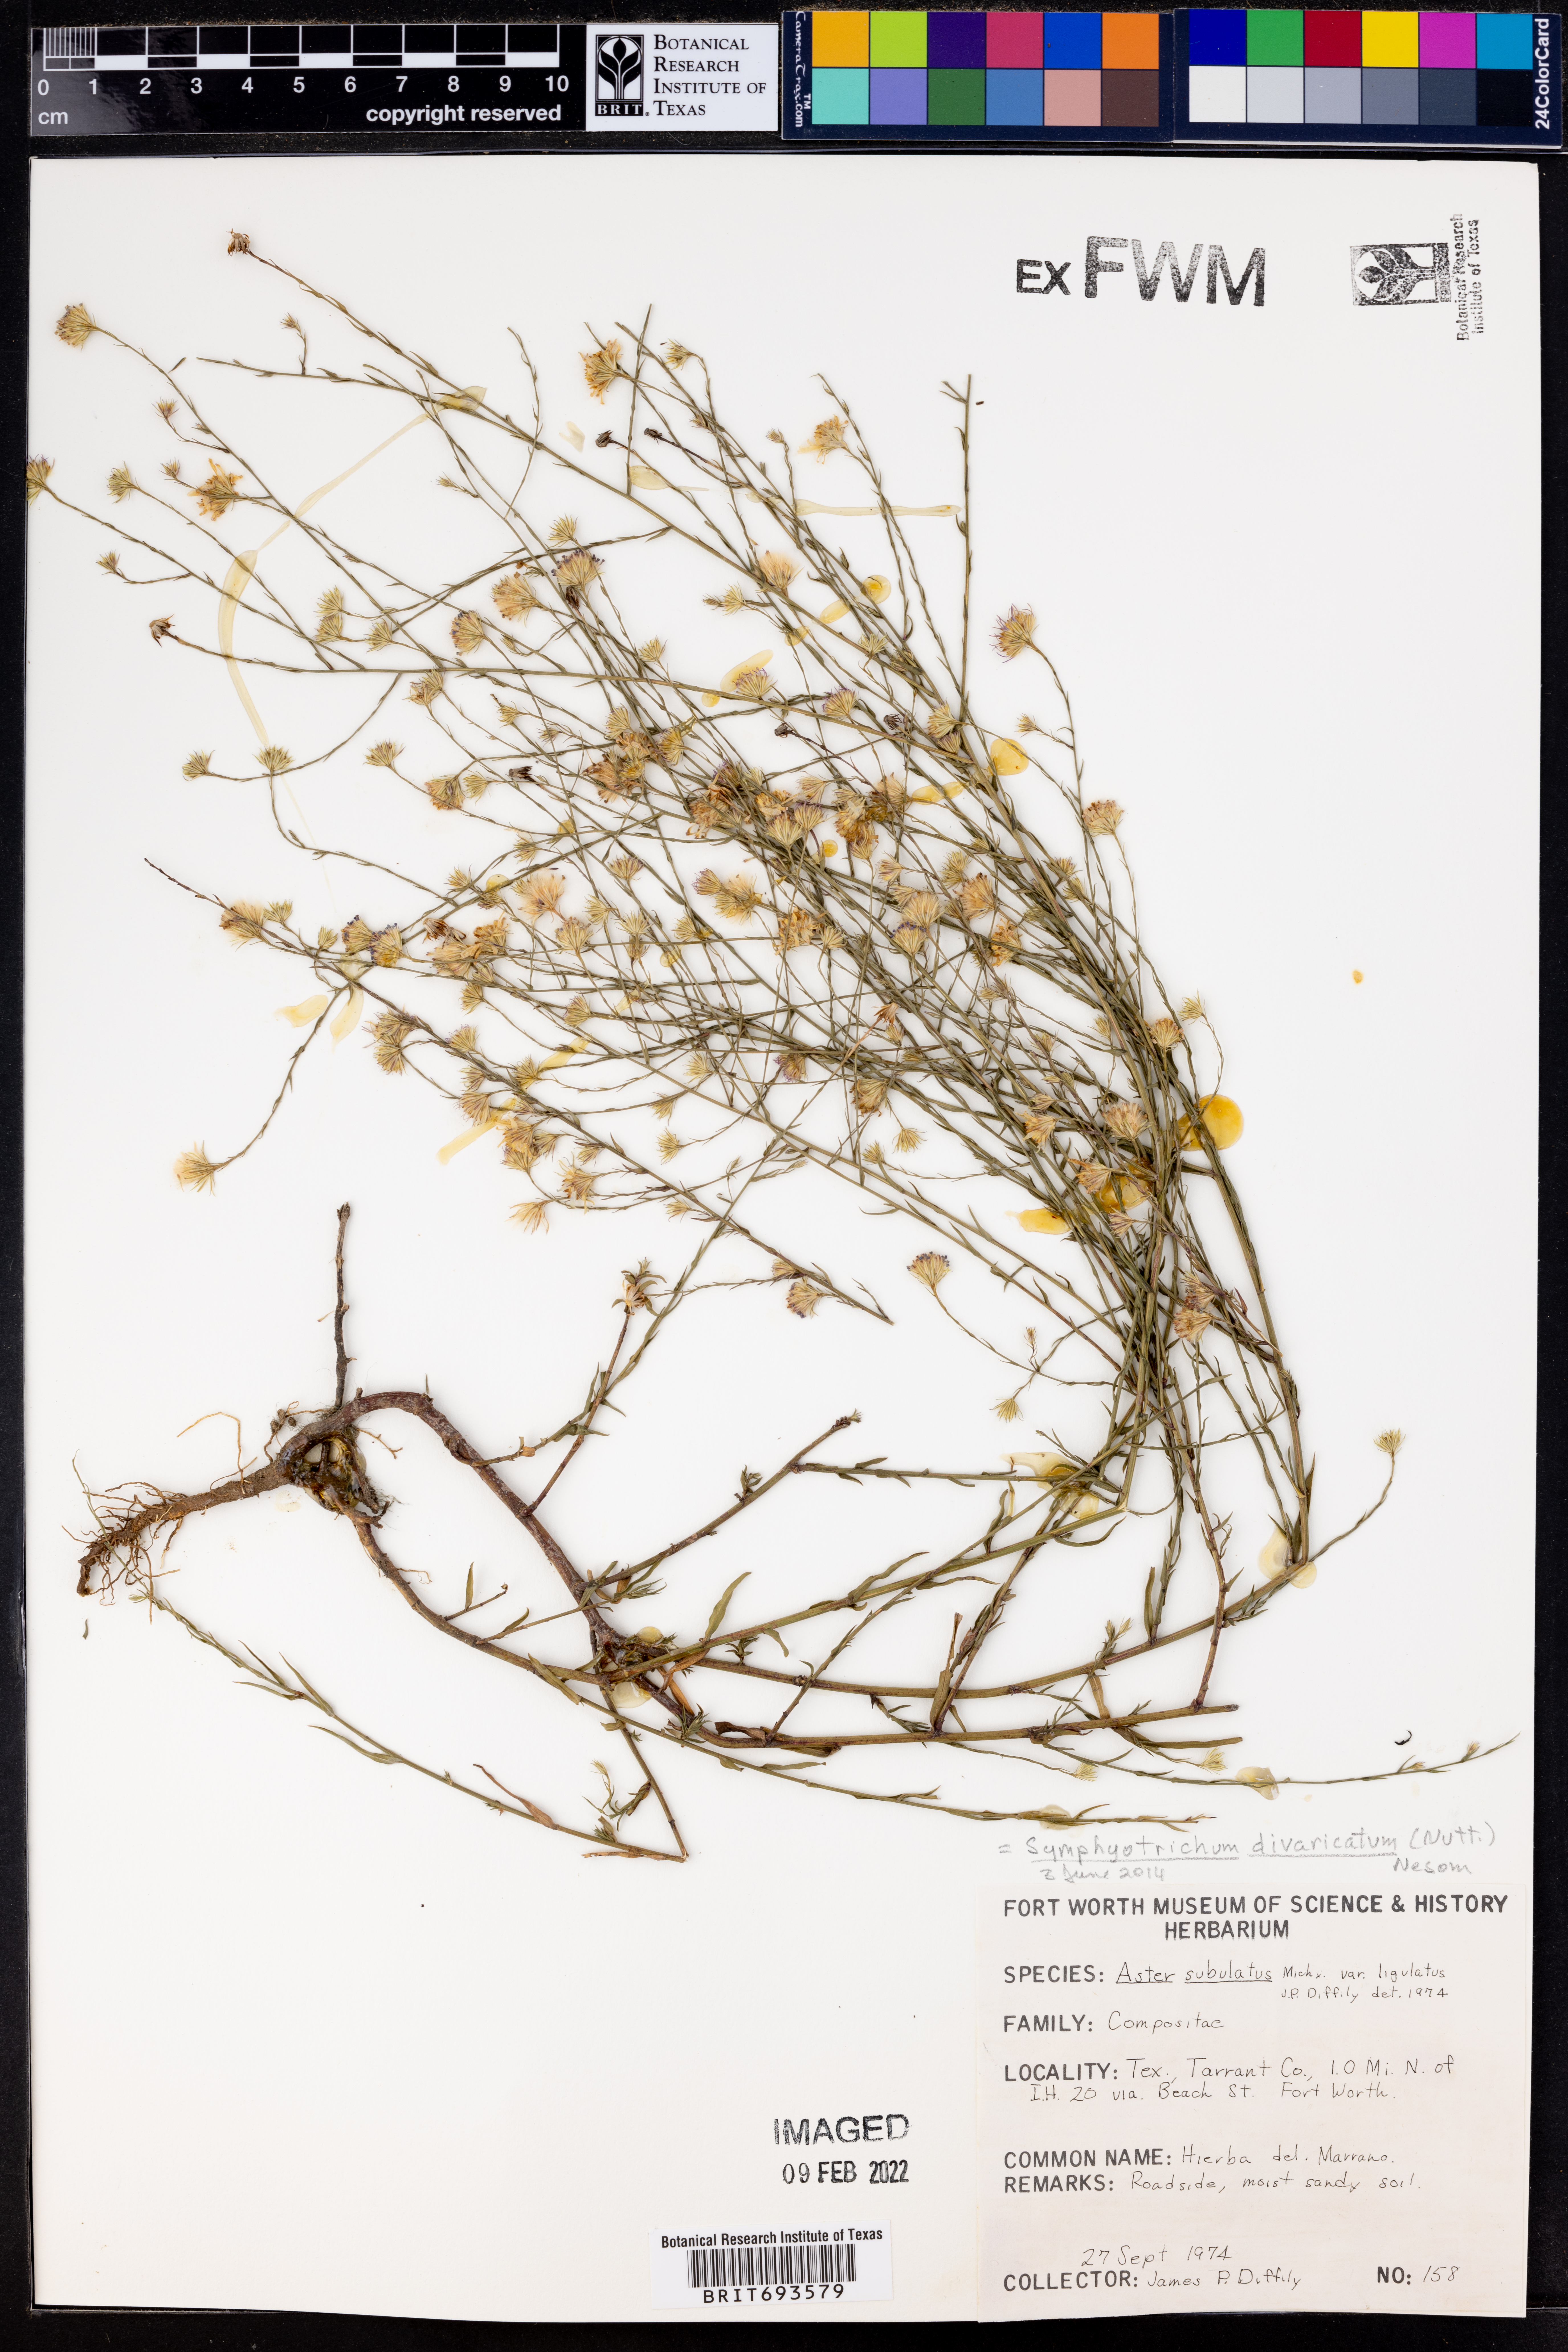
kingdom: Plantae
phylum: Tracheophyta
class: Magnoliopsida
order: Asterales
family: Asteraceae
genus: Symphyotrichum
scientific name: Symphyotrichum divaricatum
